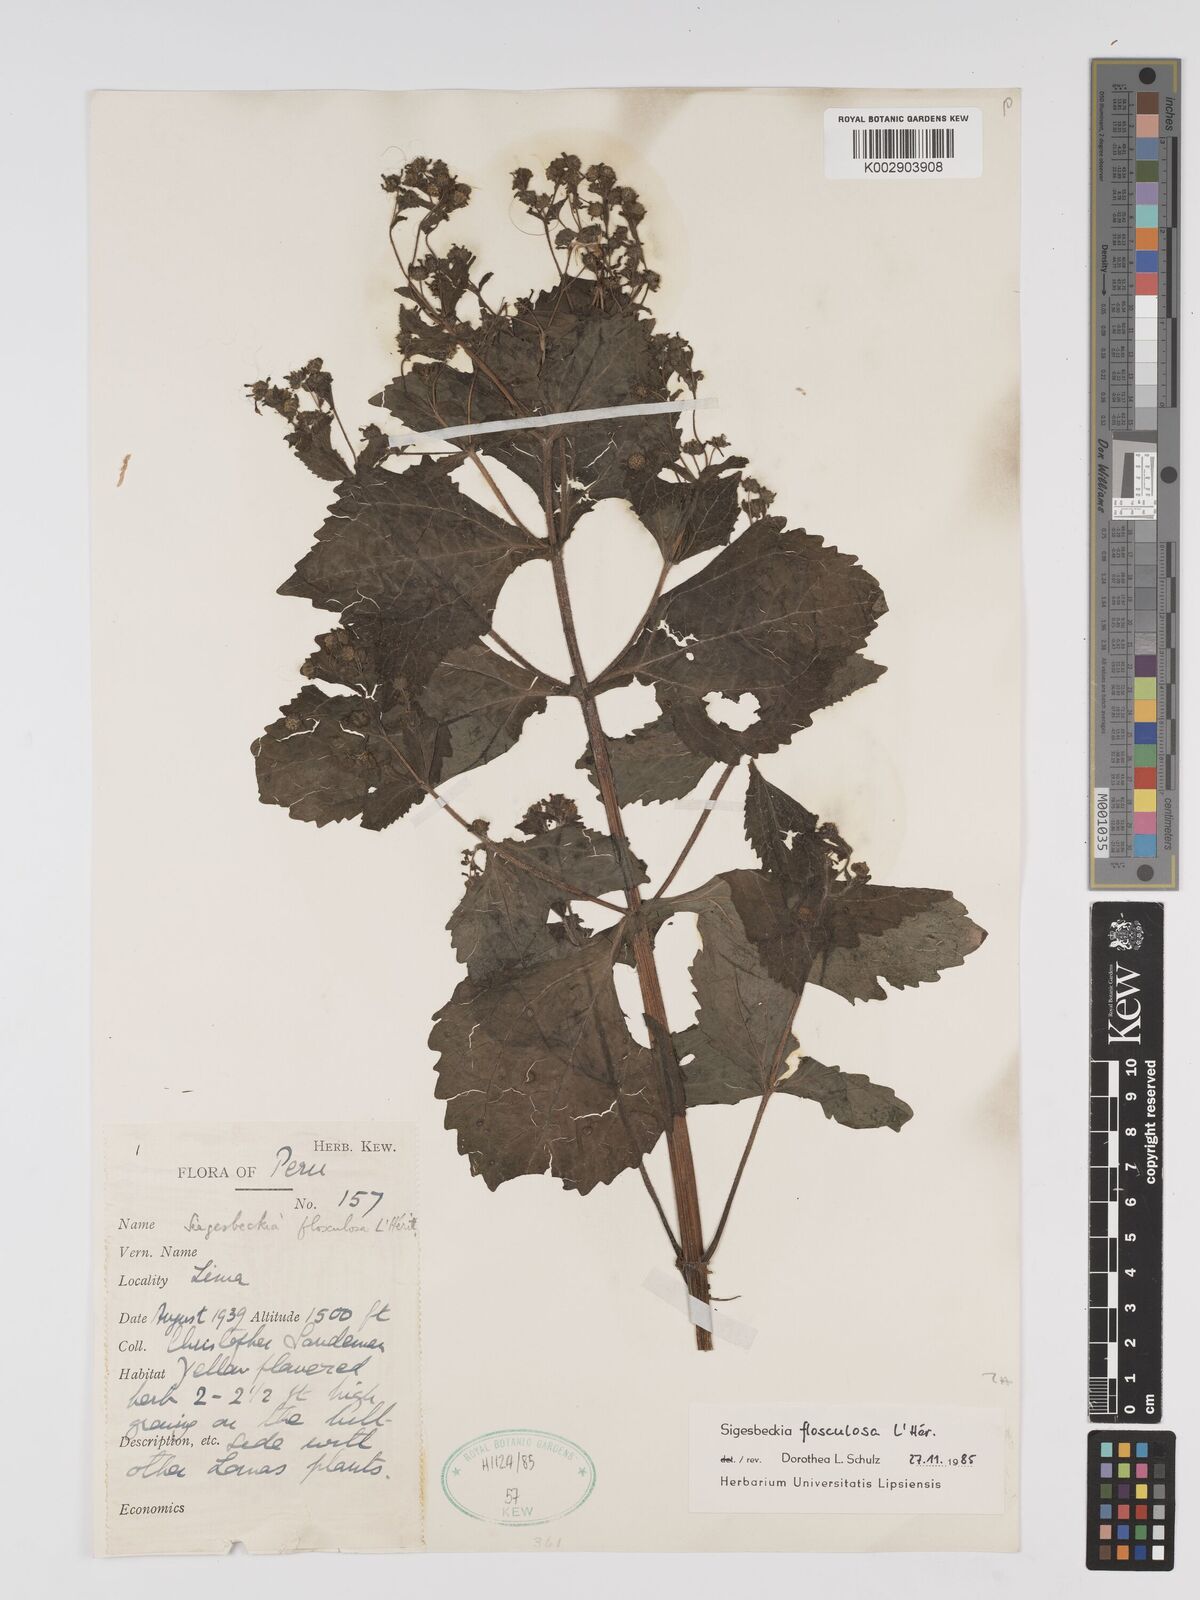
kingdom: Plantae
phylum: Tracheophyta
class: Magnoliopsida
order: Asterales
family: Asteraceae
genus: Sigesbeckia
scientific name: Sigesbeckia flosculosa
